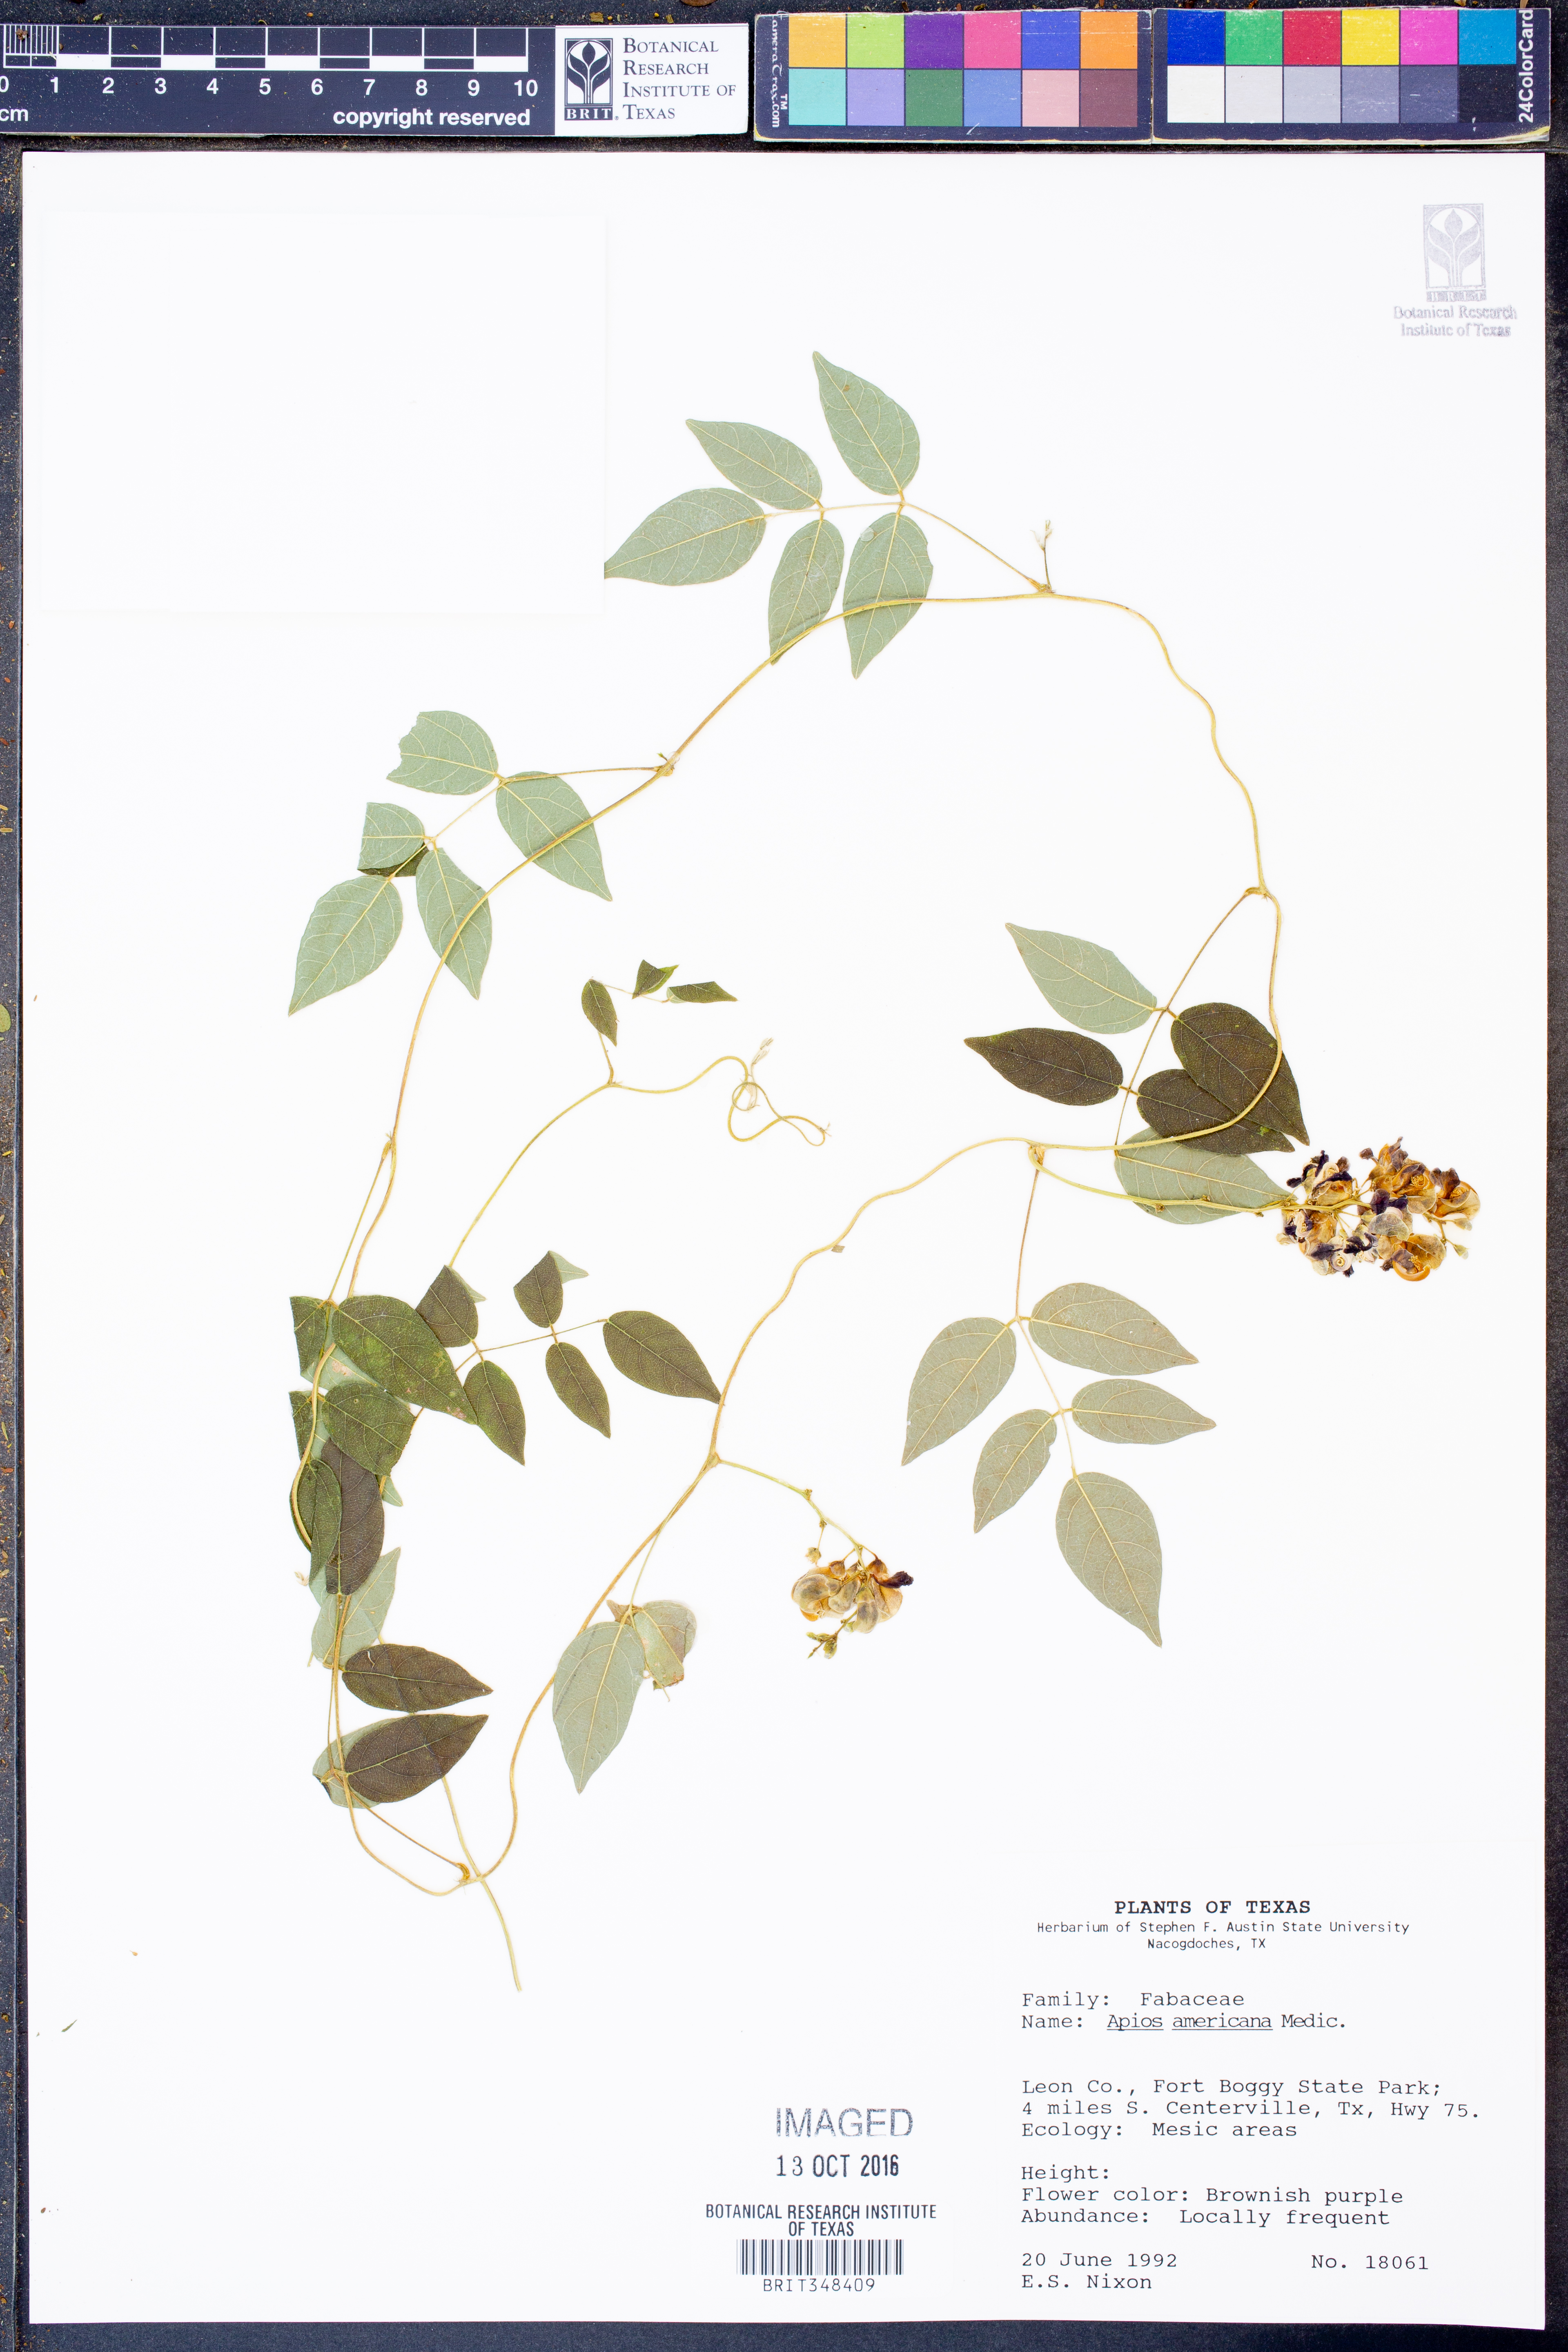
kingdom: Plantae
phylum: Tracheophyta
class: Magnoliopsida
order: Fabales
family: Fabaceae
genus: Apios
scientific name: Apios americana
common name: American potato-bean
